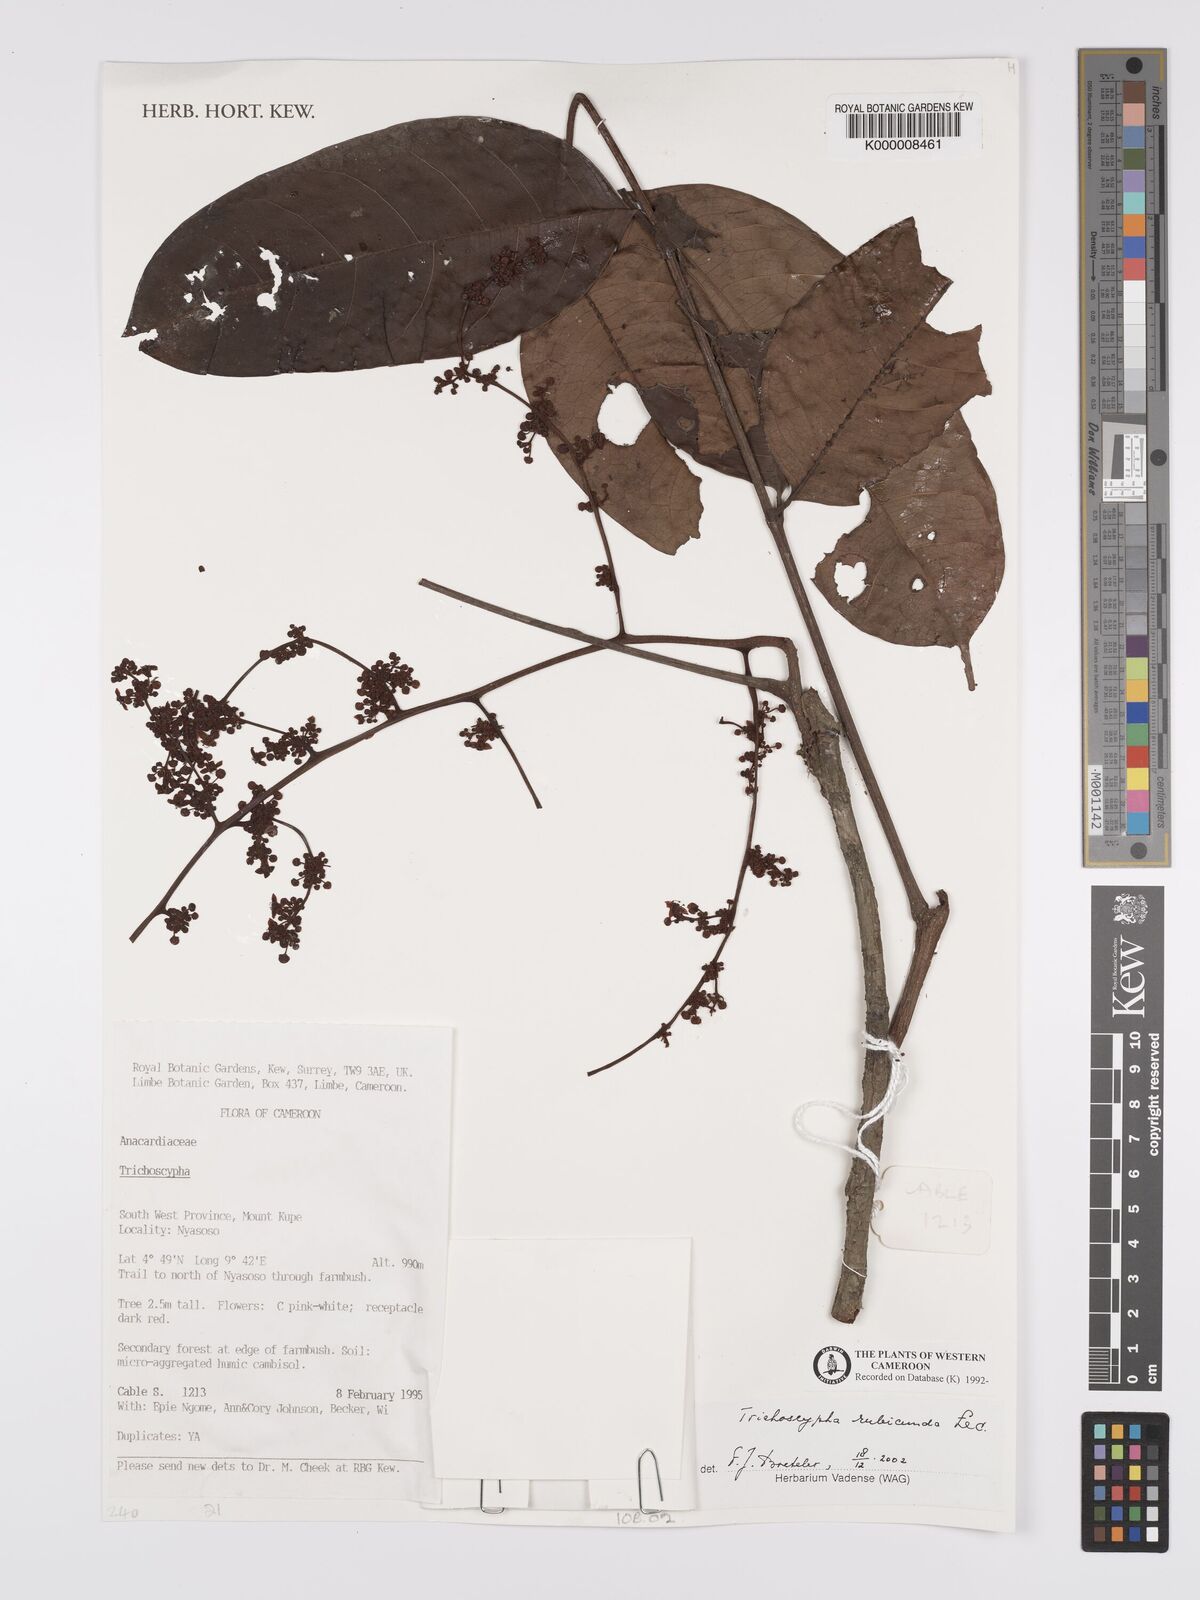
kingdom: Plantae
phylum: Tracheophyta
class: Magnoliopsida
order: Sapindales
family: Anacardiaceae
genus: Trichoscypha
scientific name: Trichoscypha rubicunda
